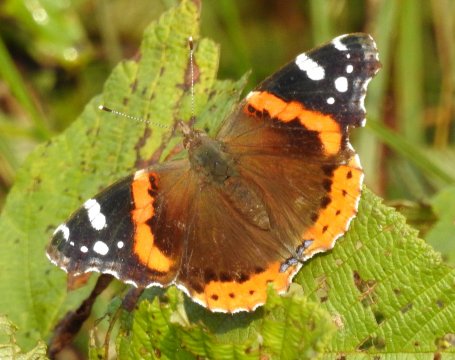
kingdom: Animalia
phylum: Arthropoda
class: Insecta
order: Lepidoptera
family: Nymphalidae
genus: Vanessa
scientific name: Vanessa atalanta
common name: Red Admiral
